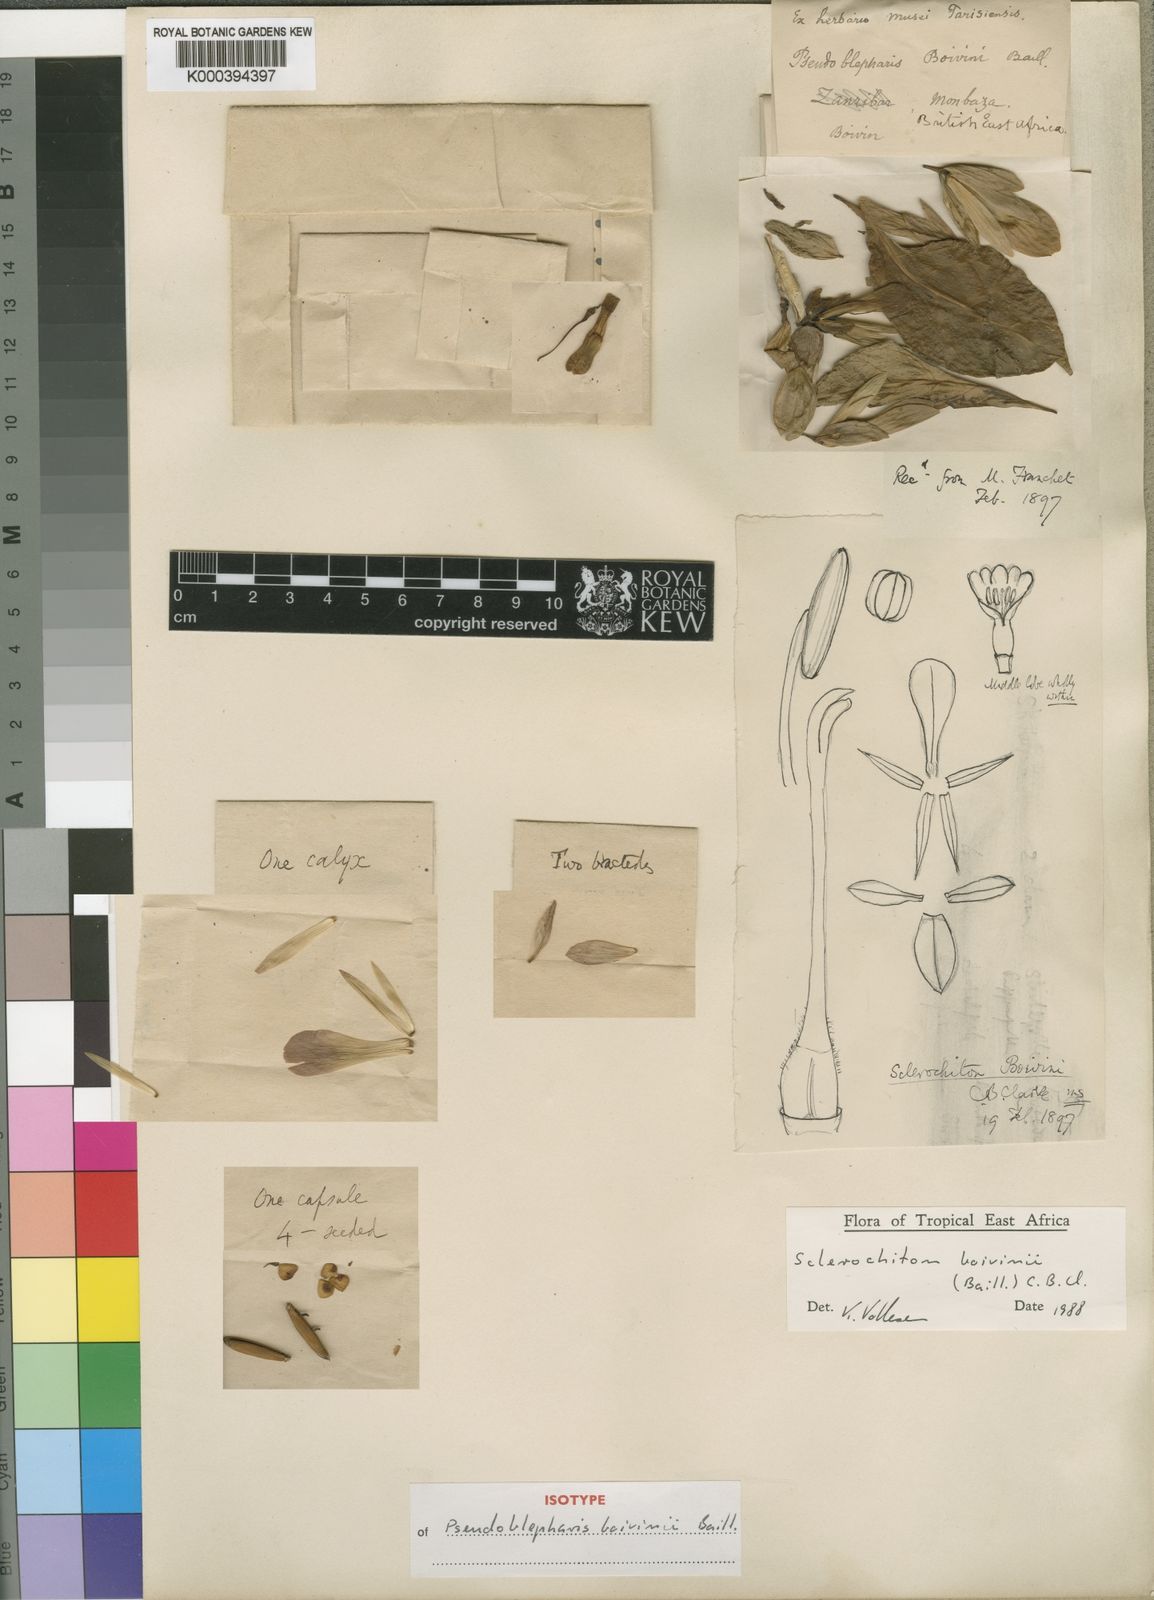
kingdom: Plantae
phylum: Tracheophyta
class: Magnoliopsida
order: Lamiales
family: Acanthaceae
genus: Sclerochiton
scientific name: Sclerochiton boivinii
